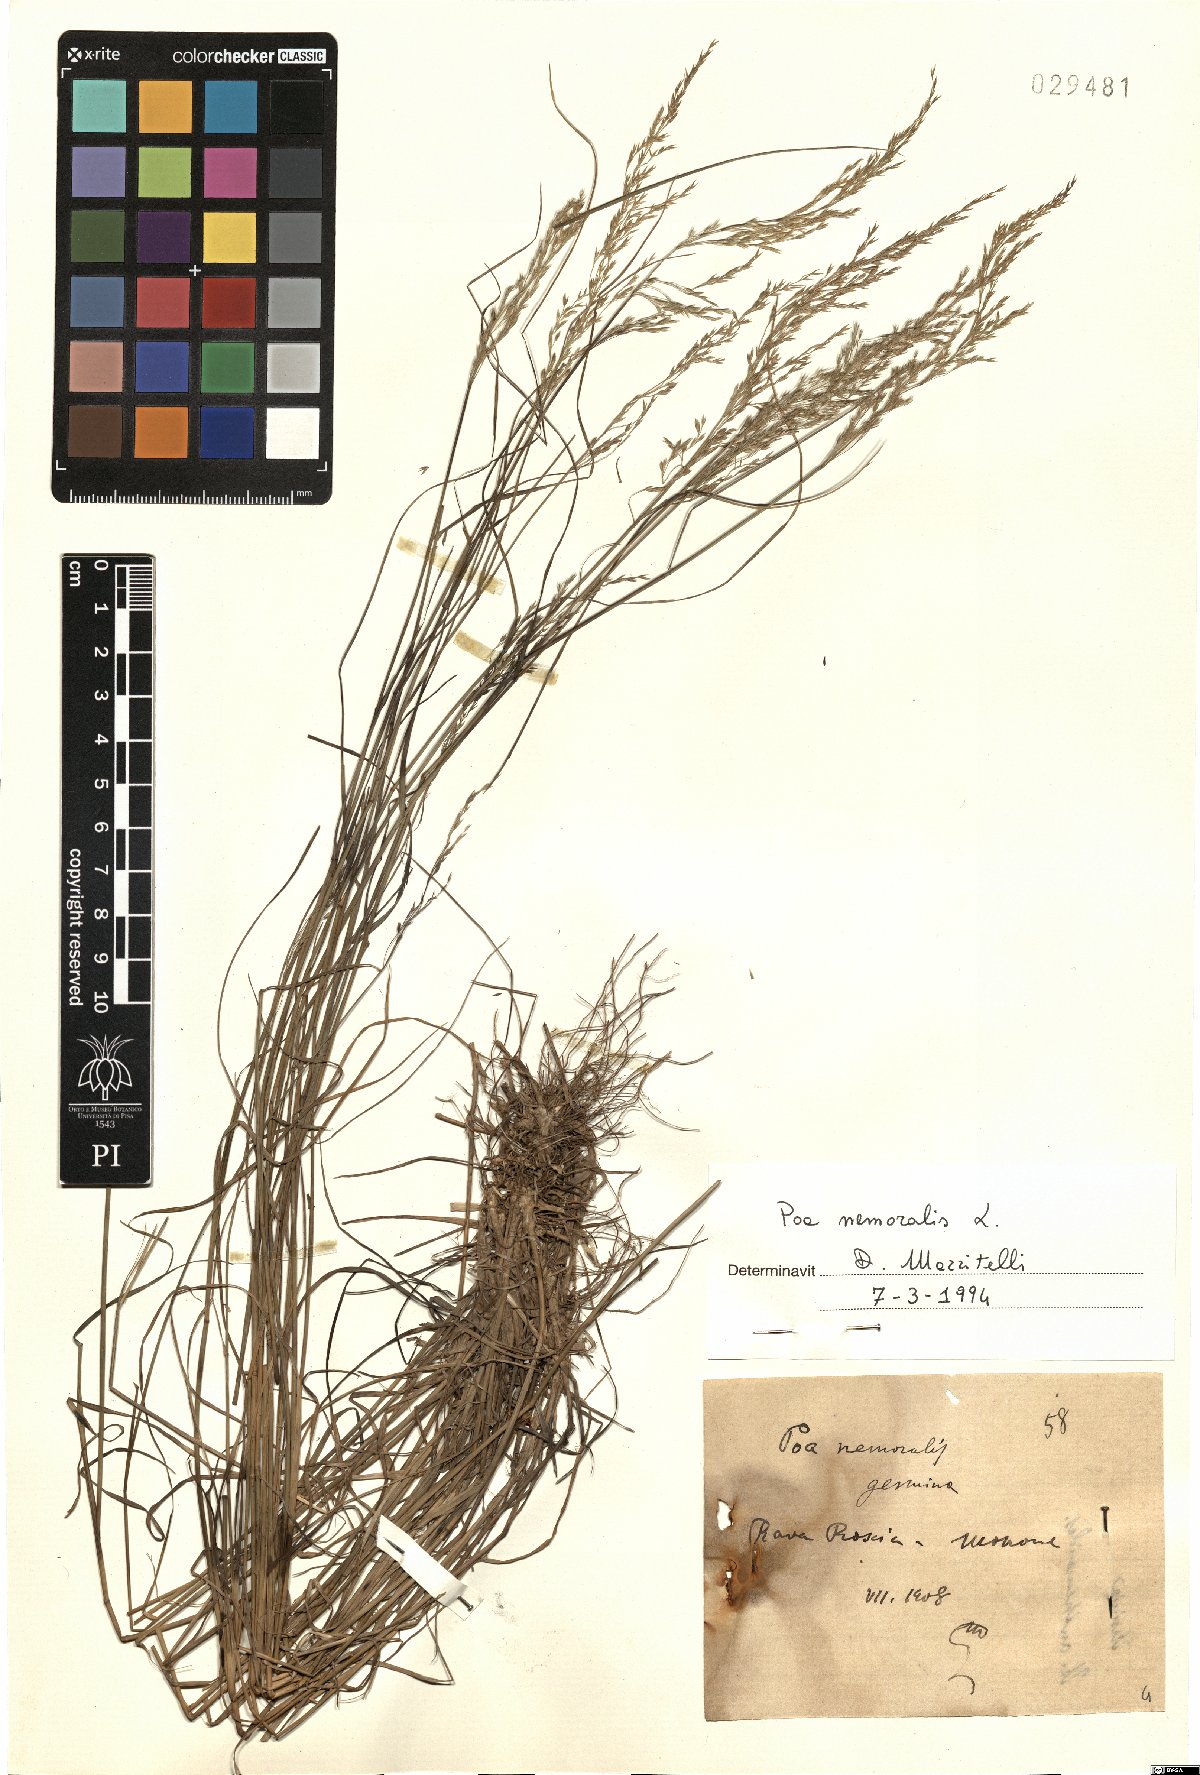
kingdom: Plantae
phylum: Tracheophyta
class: Liliopsida
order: Poales
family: Poaceae
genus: Poa
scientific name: Poa nemoralis
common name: Wood bluegrass
